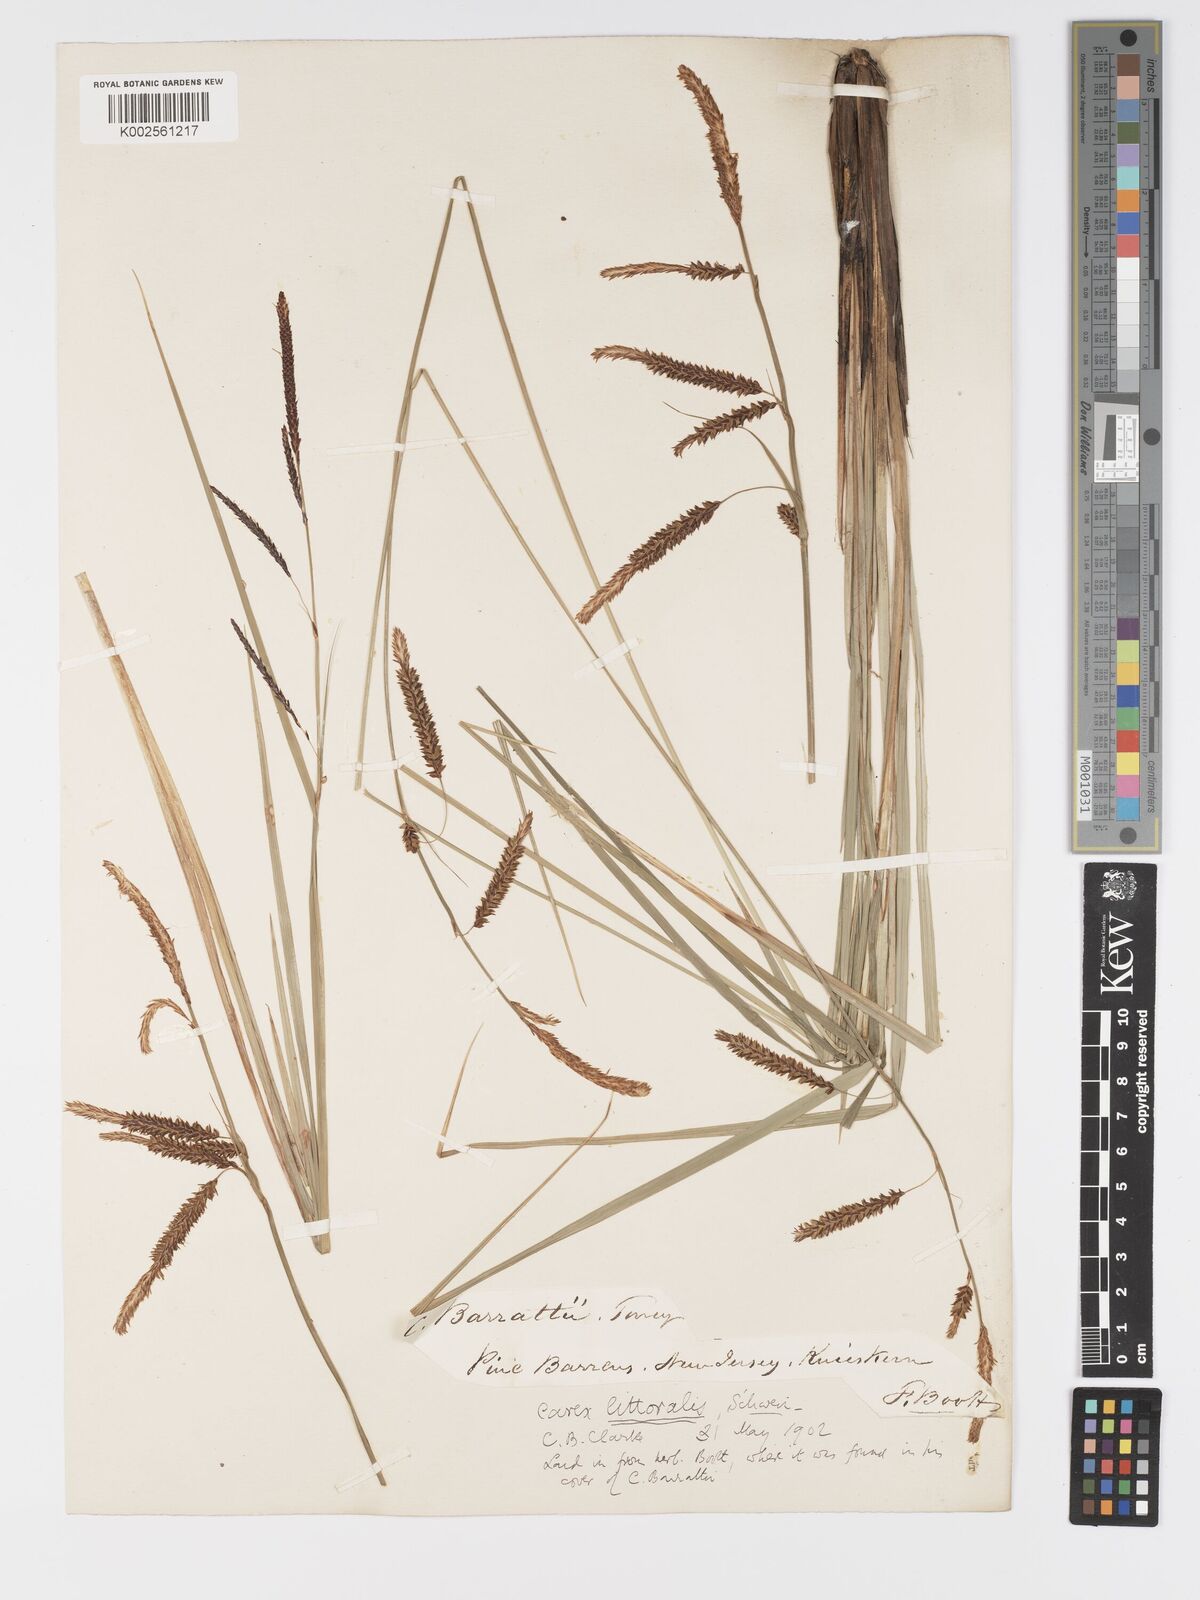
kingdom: Plantae
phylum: Tracheophyta
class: Liliopsida
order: Poales
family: Cyperaceae
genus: Carex
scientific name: Carex barrattii
